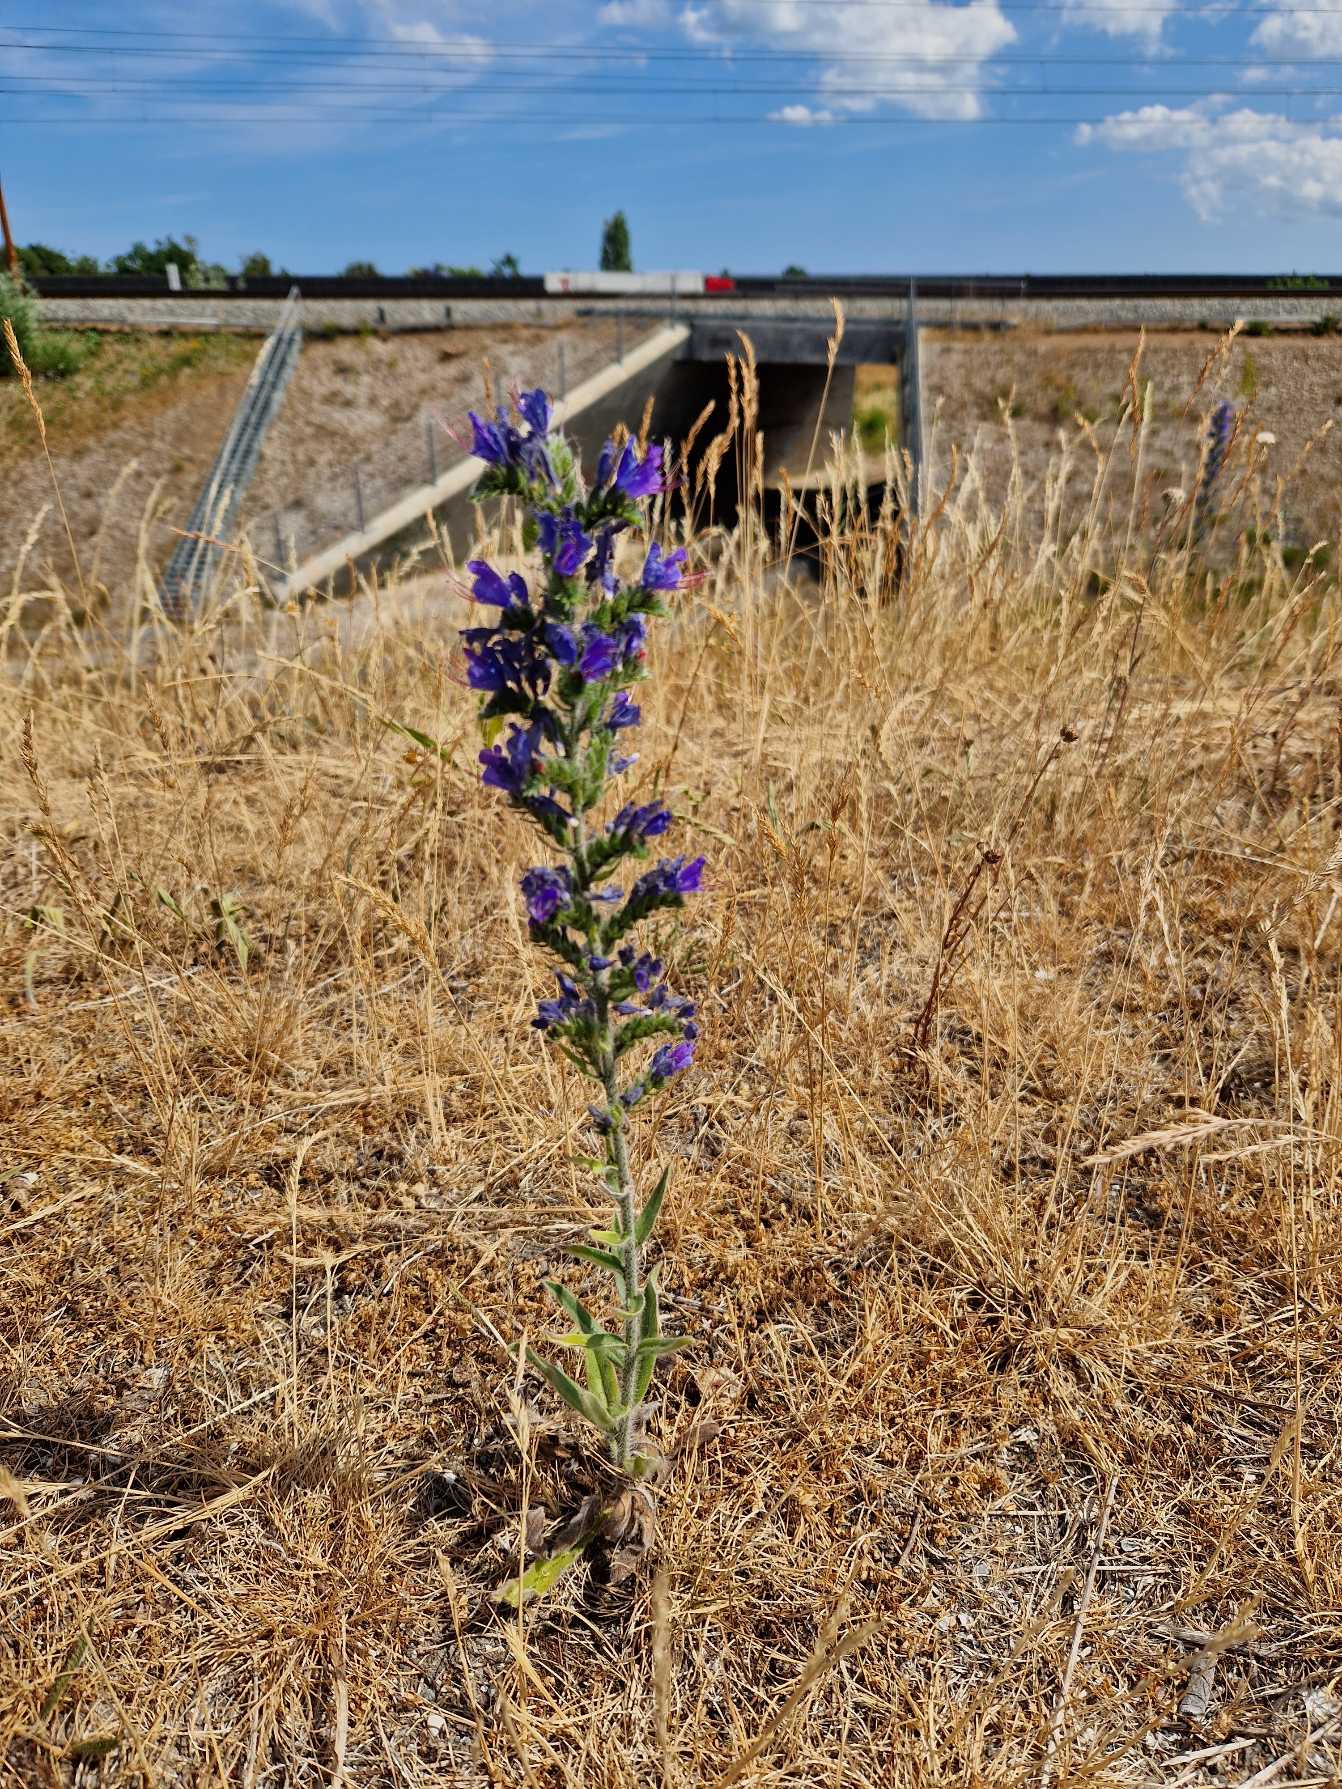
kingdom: Plantae
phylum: Tracheophyta
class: Magnoliopsida
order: Boraginales
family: Boraginaceae
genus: Echium
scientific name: Echium vulgare
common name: Slangehoved
